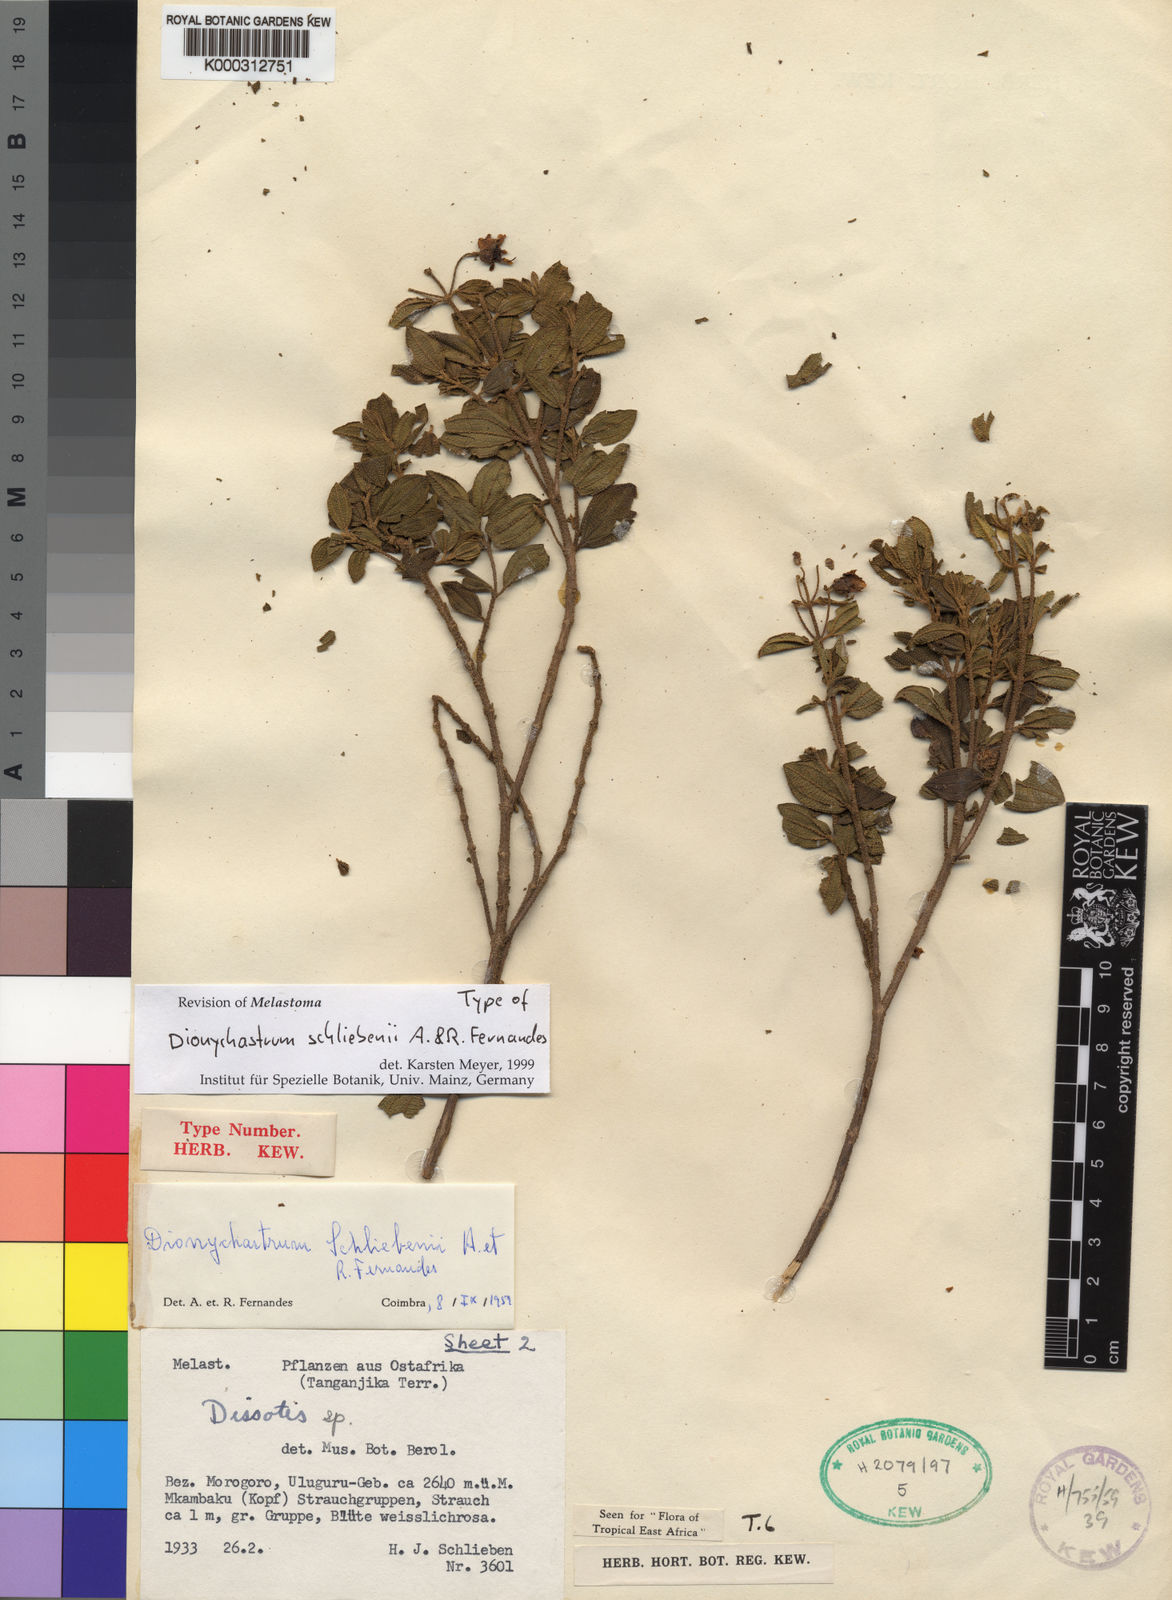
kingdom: Plantae
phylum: Tracheophyta
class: Magnoliopsida
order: Myrtales
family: Melastomataceae
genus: Dionychastrum
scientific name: Dionychastrum schliebenii
